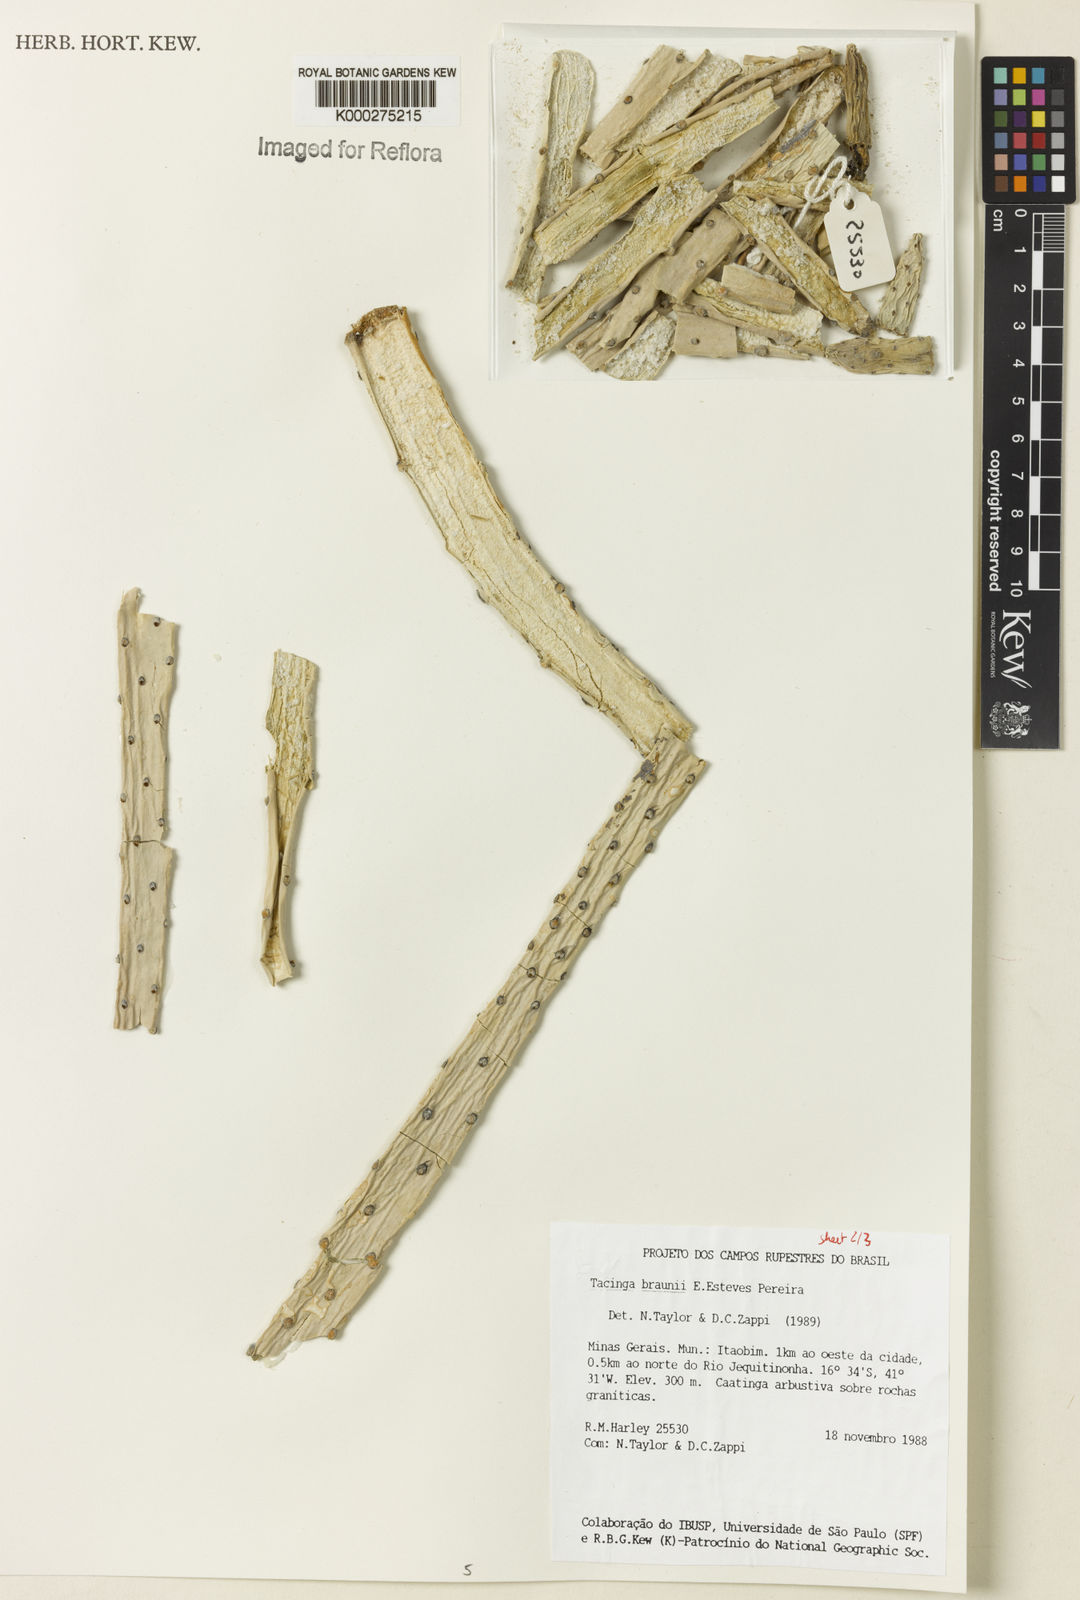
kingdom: Plantae
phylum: Tracheophyta
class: Magnoliopsida
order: Caryophyllales
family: Cactaceae
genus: Tacinga
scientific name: Tacinga braunii
